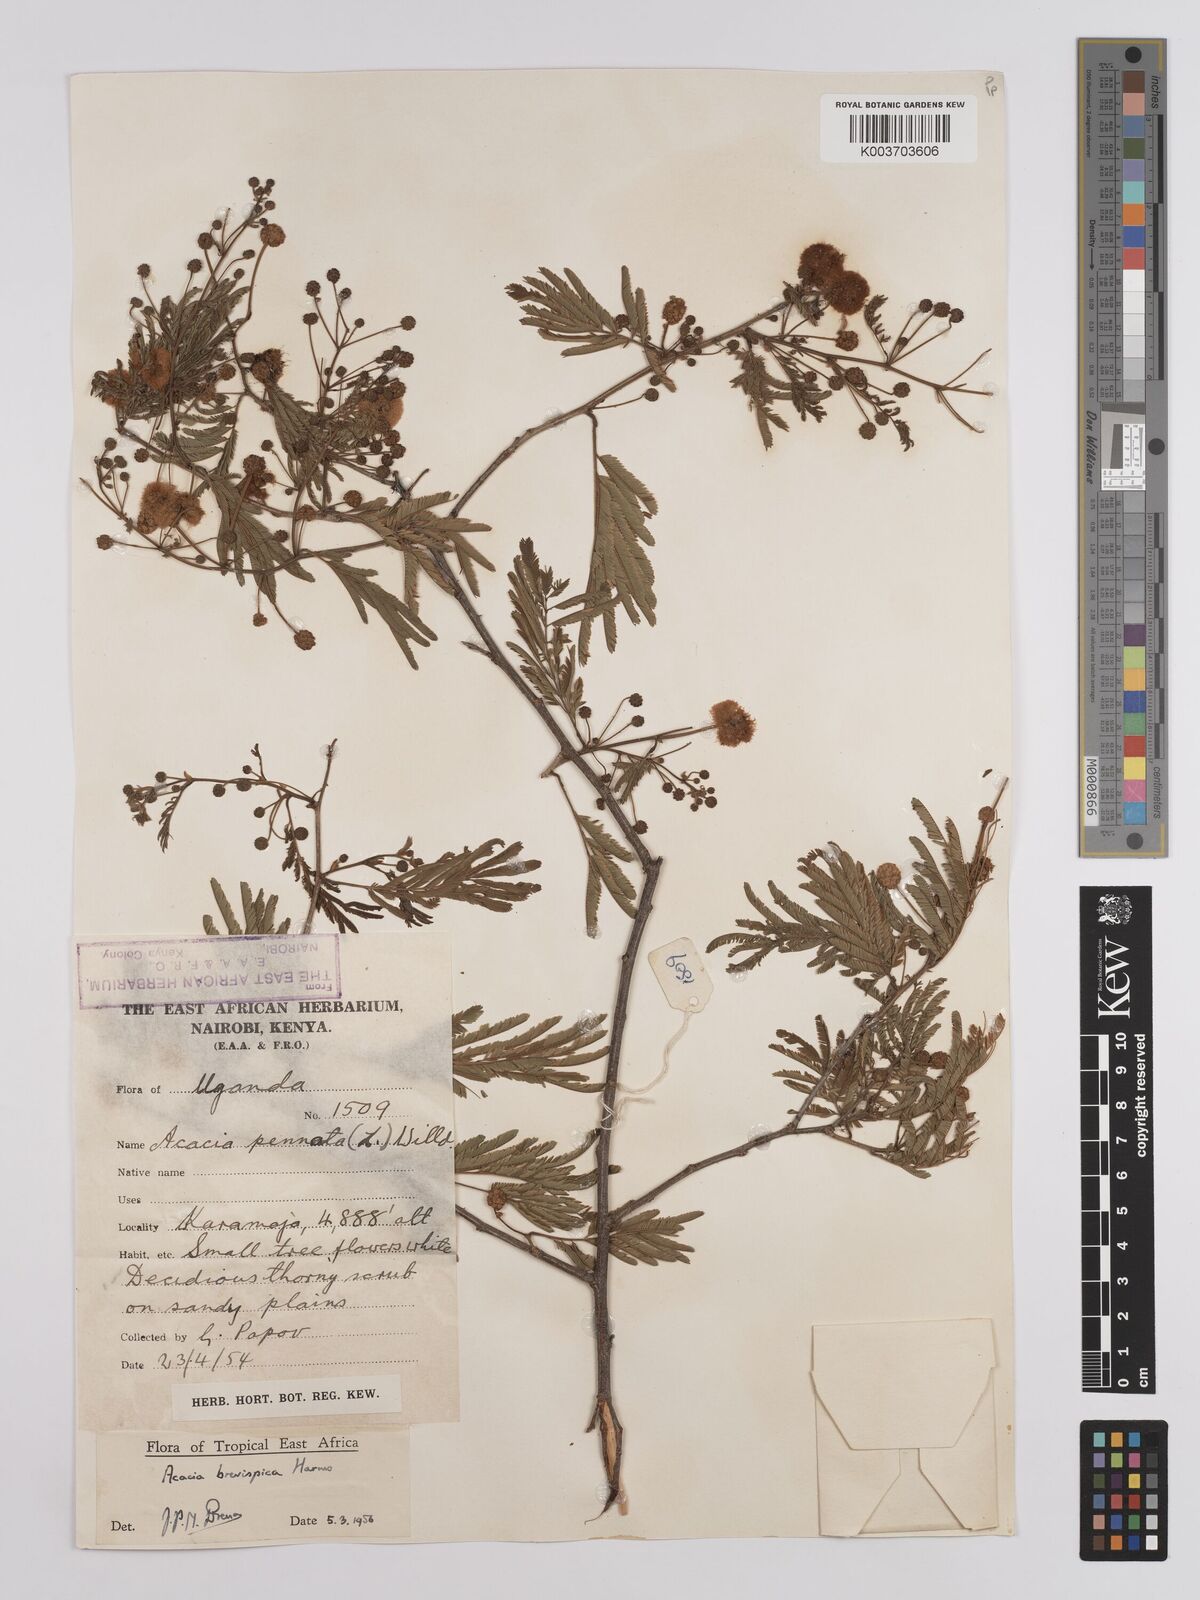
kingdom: Plantae
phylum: Tracheophyta
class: Magnoliopsida
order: Fabales
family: Fabaceae
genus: Senegalia
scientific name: Senegalia brevispica
